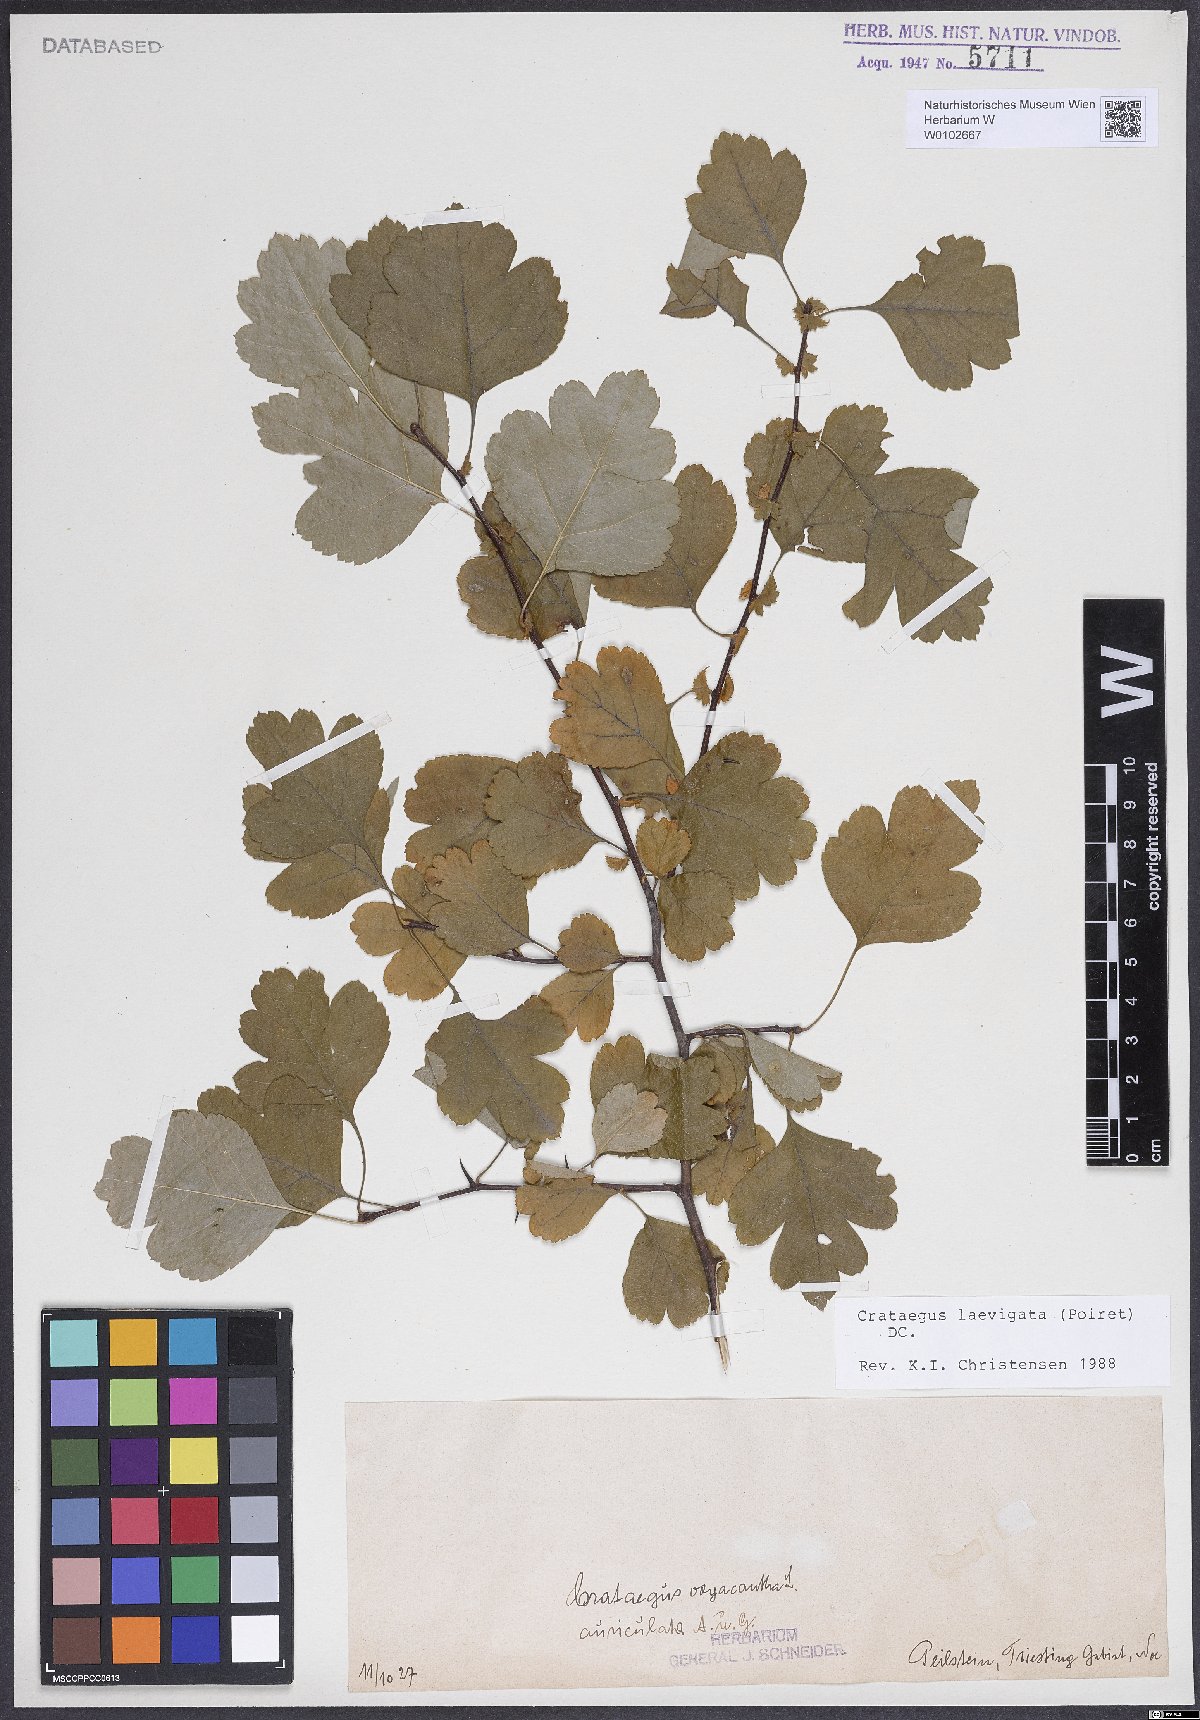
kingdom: Plantae
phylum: Tracheophyta
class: Magnoliopsida
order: Rosales
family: Rosaceae
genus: Crataegus
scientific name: Crataegus laevigata
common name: Midland hawthorn
